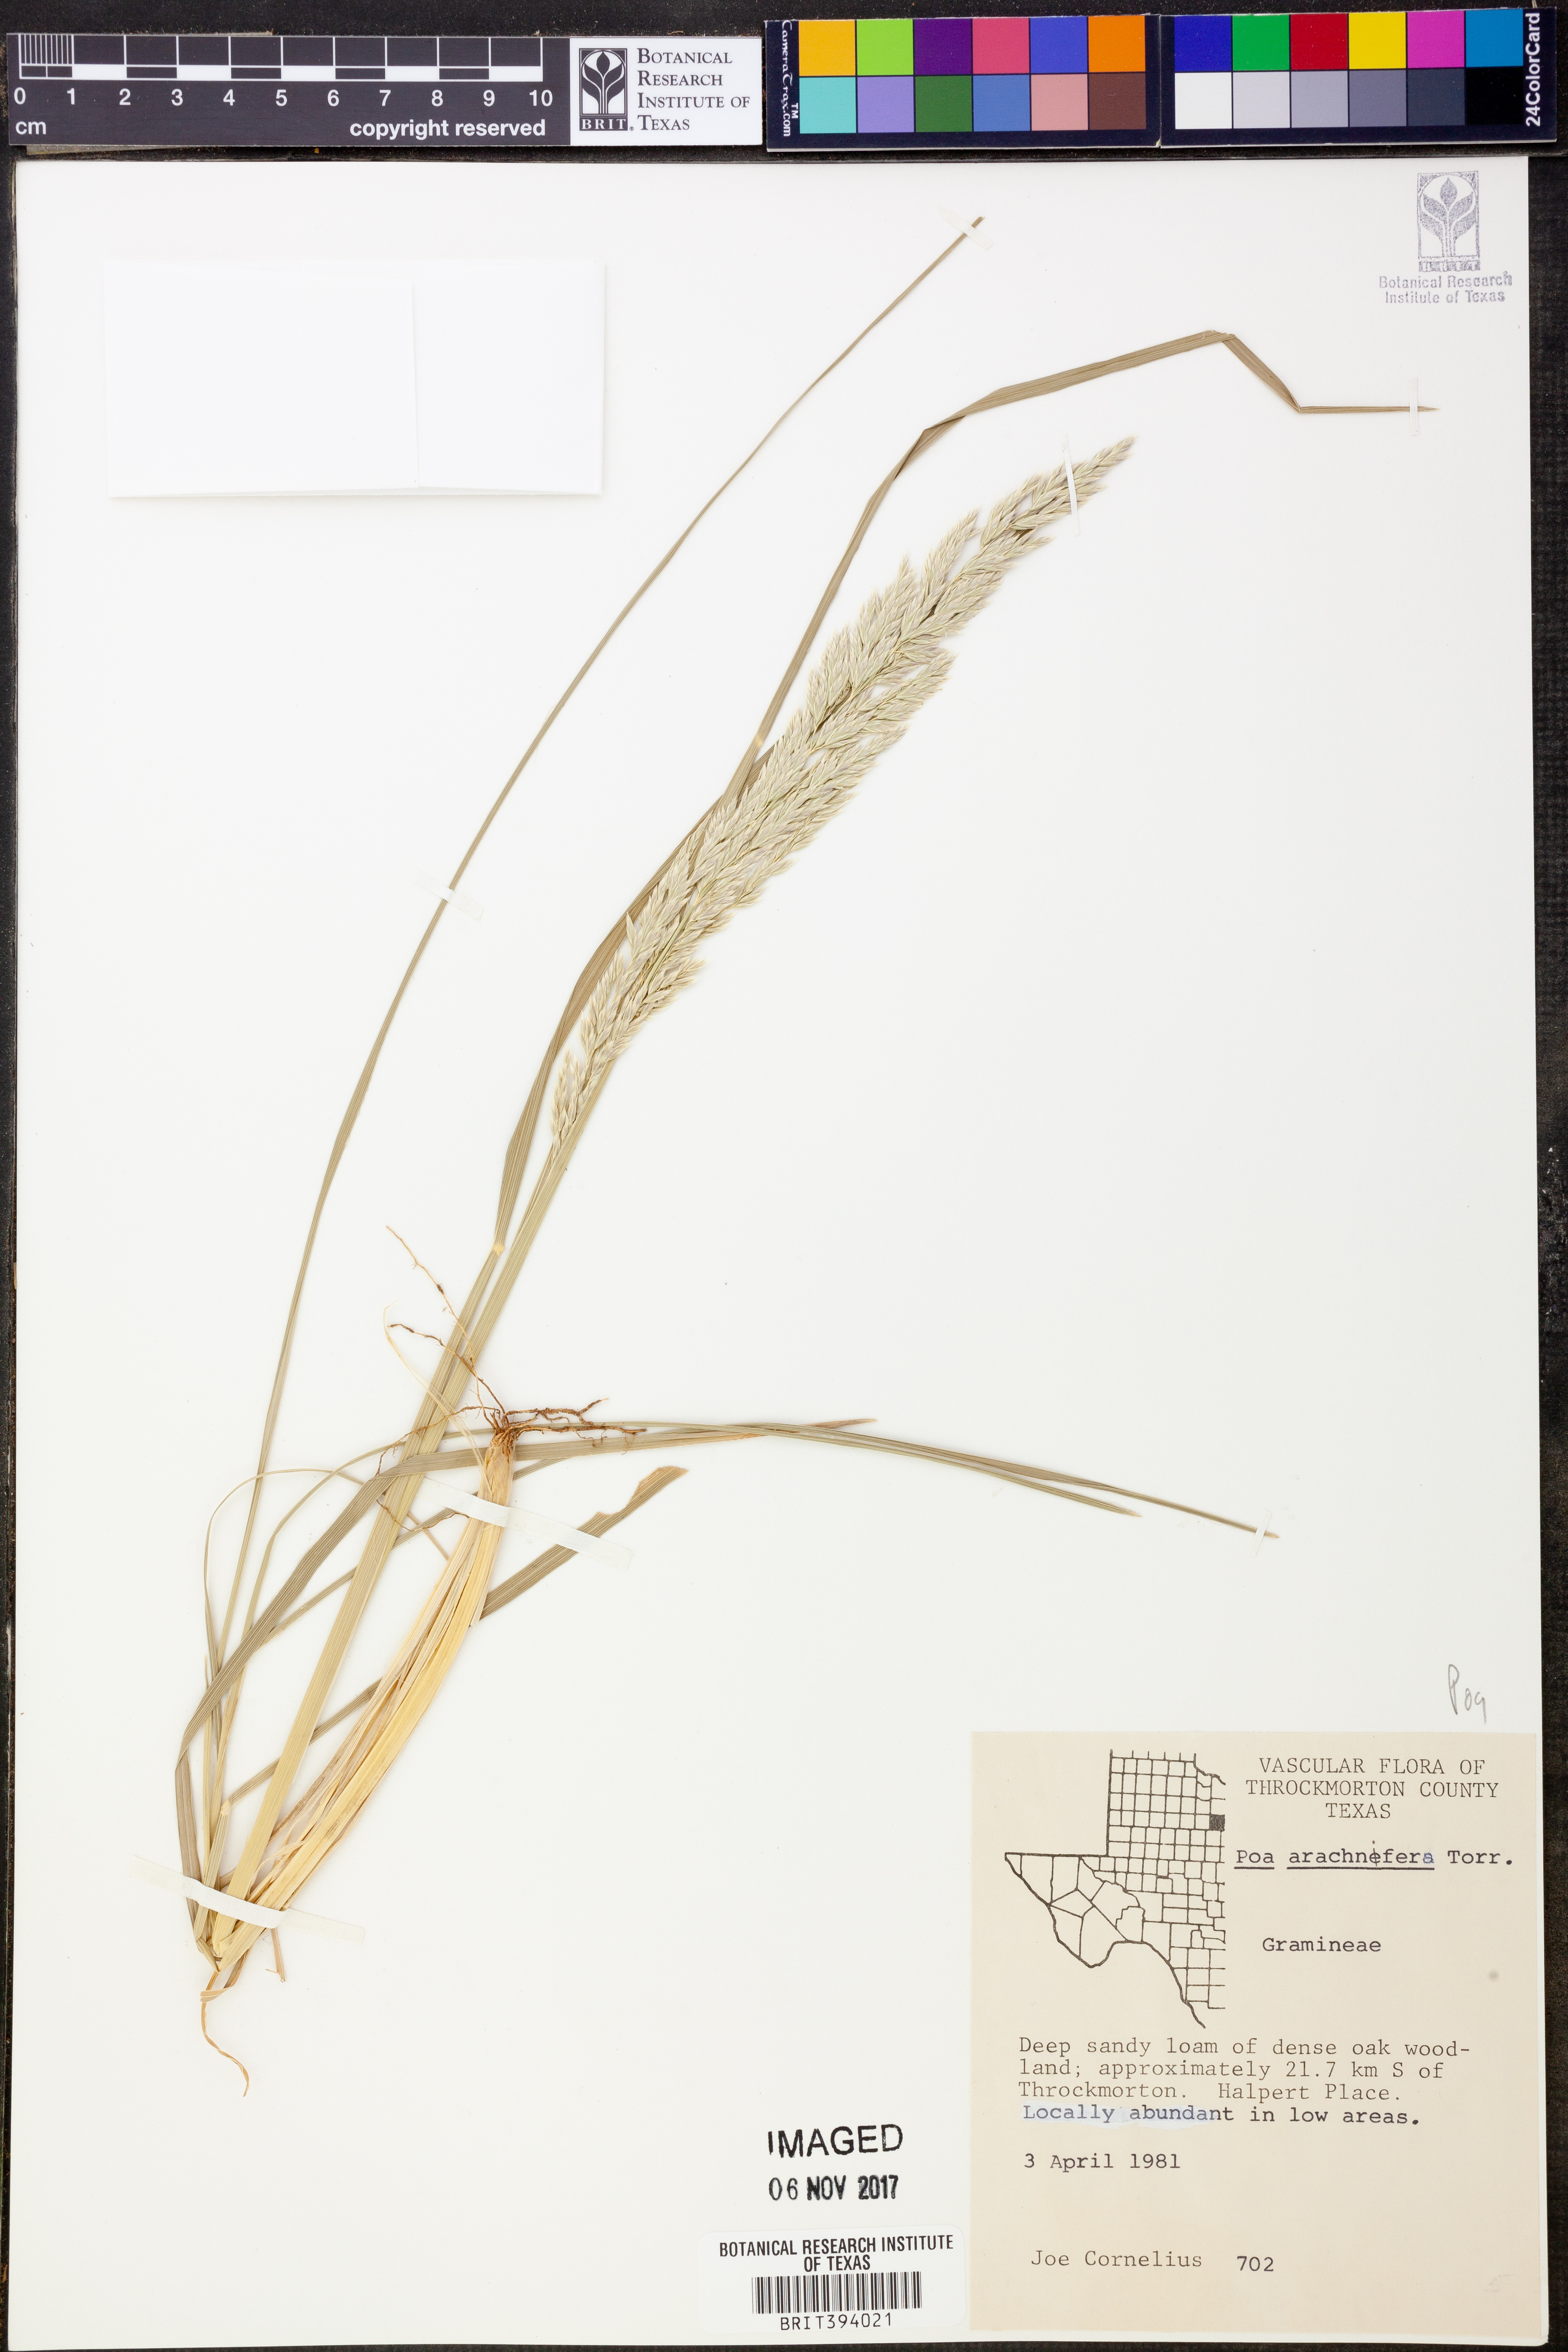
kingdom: Plantae
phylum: Tracheophyta
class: Liliopsida
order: Poales
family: Poaceae
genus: Poa
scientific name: Poa arachnifera
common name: Texas bluegrass
